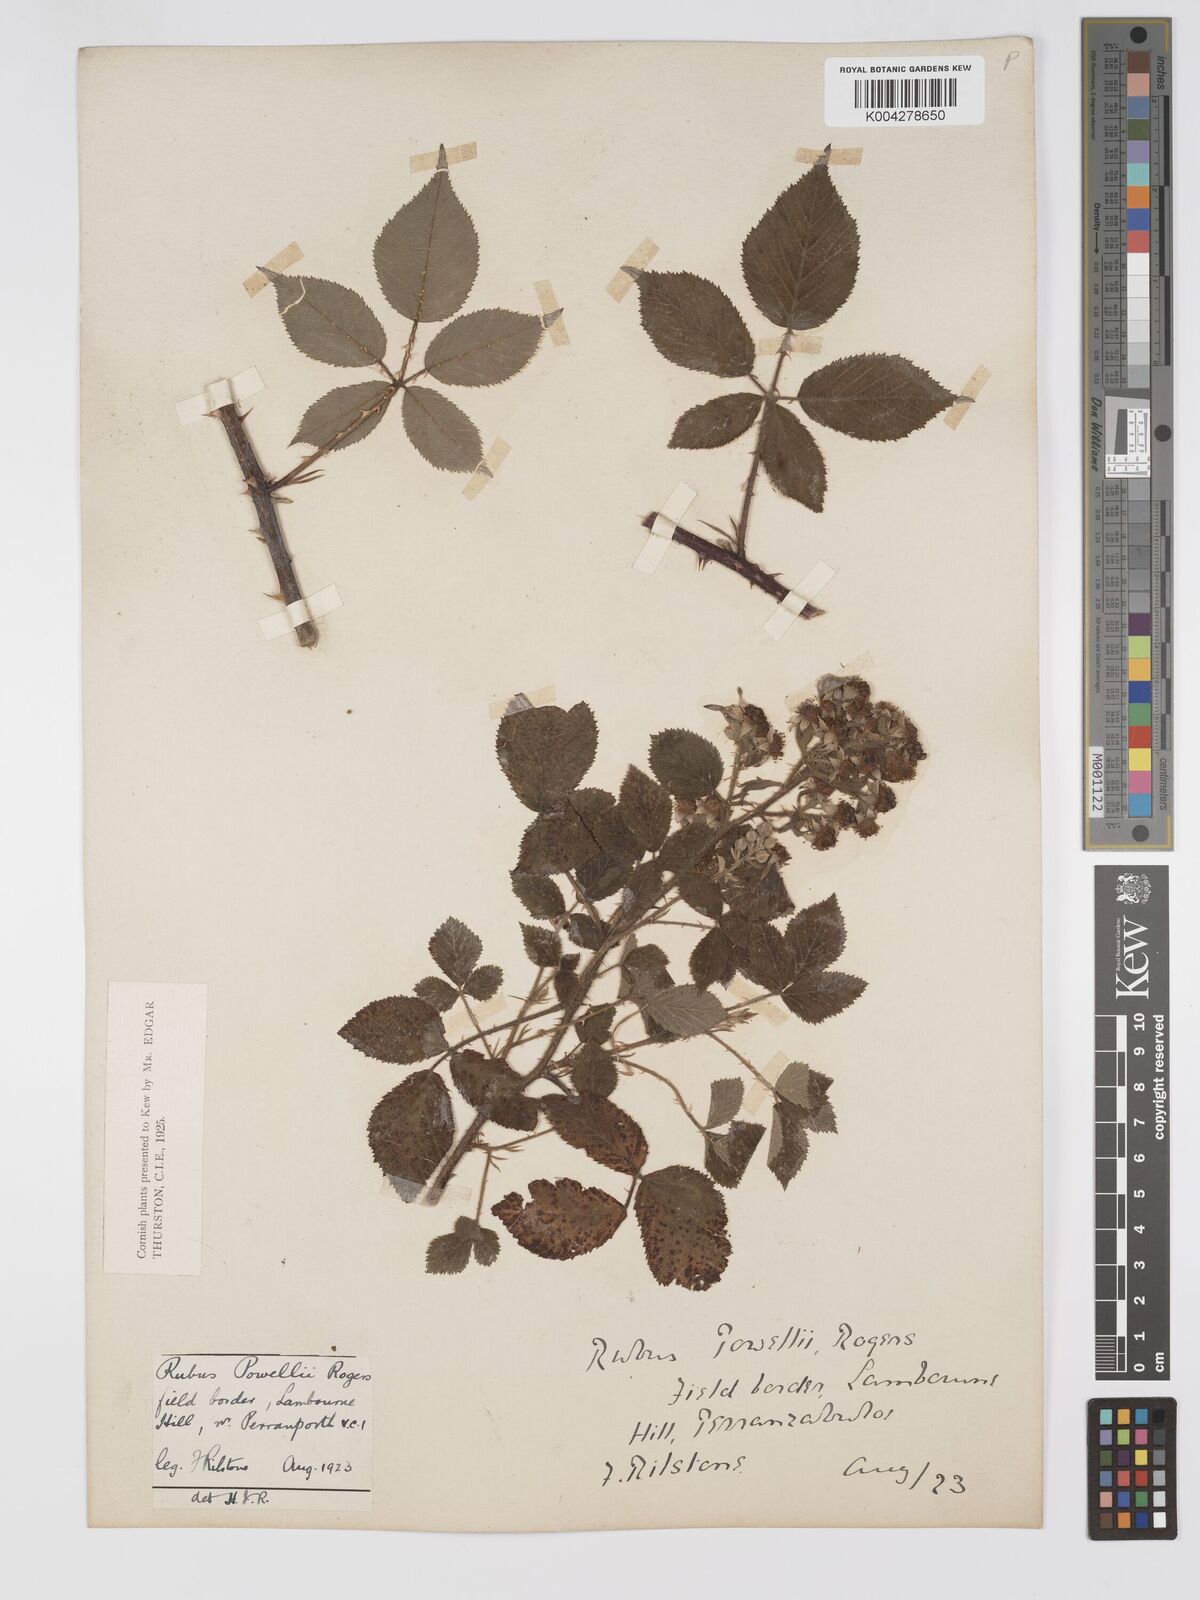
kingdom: Plantae
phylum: Tracheophyta
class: Magnoliopsida
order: Rosales
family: Rosaceae
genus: Rubus
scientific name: Rubus radula
